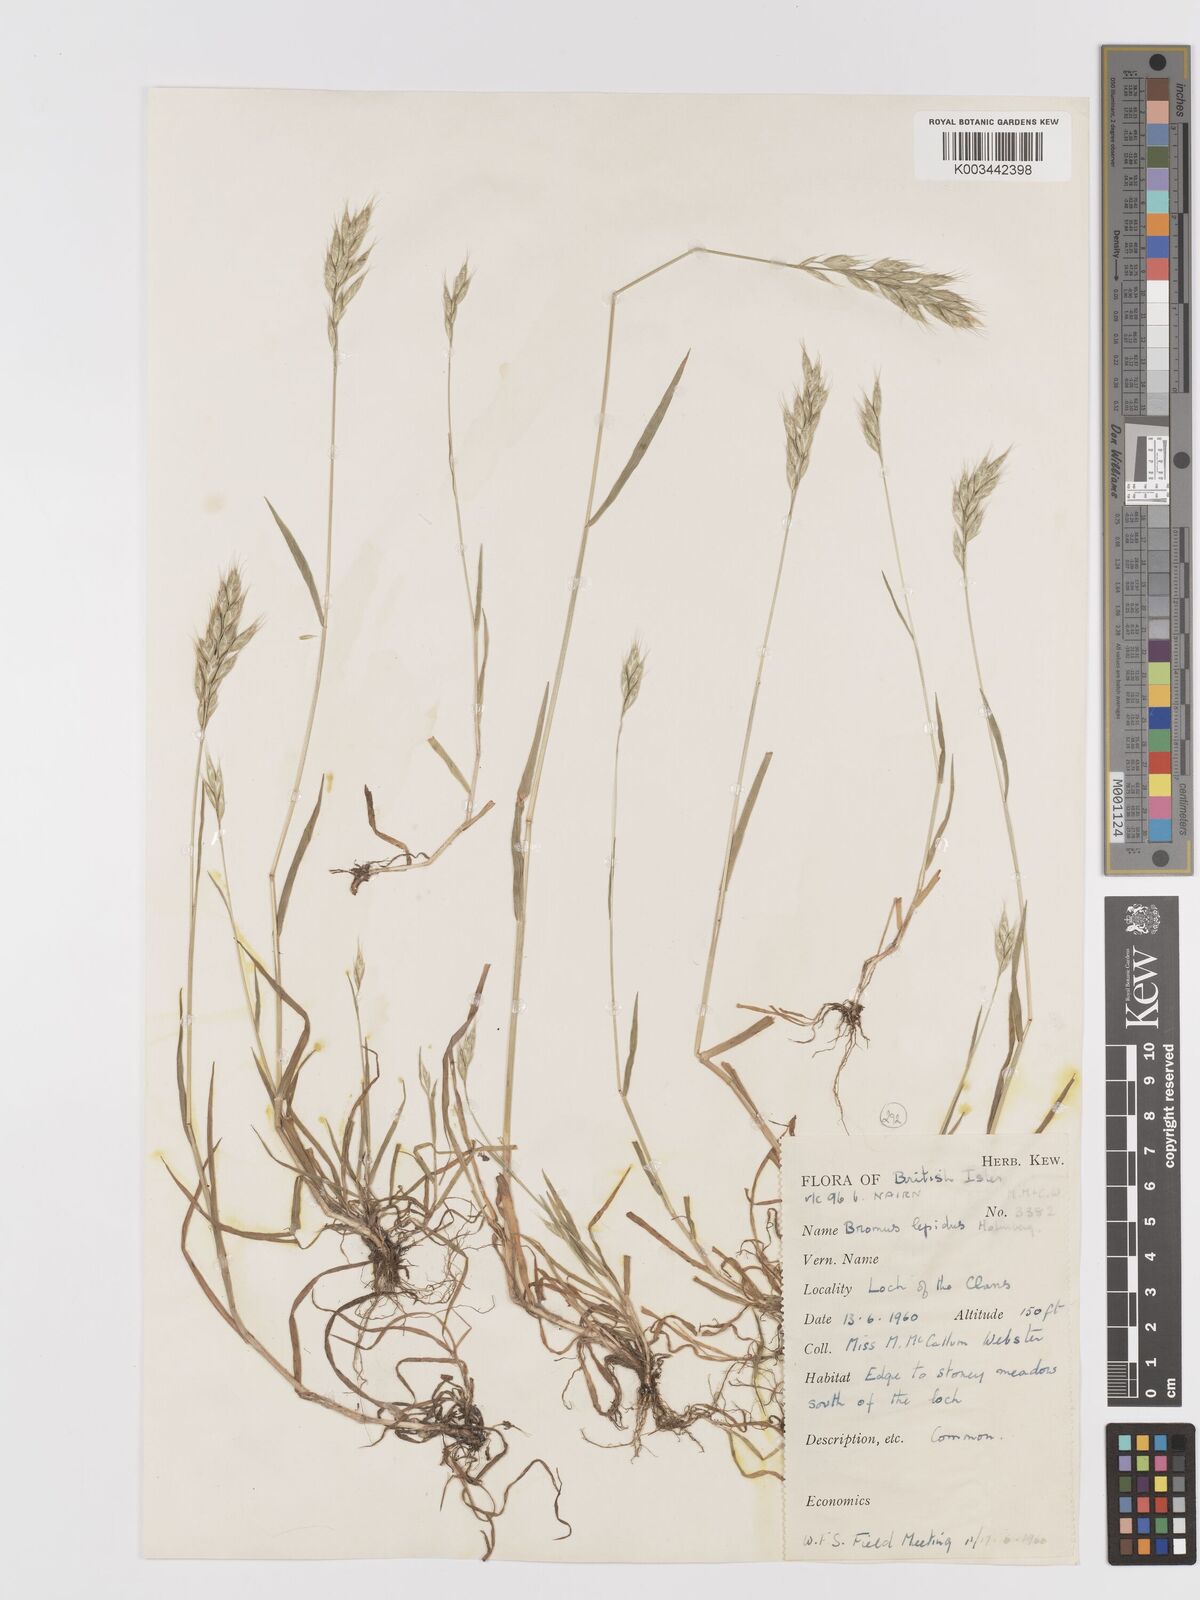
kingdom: Plantae
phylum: Tracheophyta
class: Liliopsida
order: Poales
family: Poaceae
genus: Bromus
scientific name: Bromus lepidus
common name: Slender soft-brome
